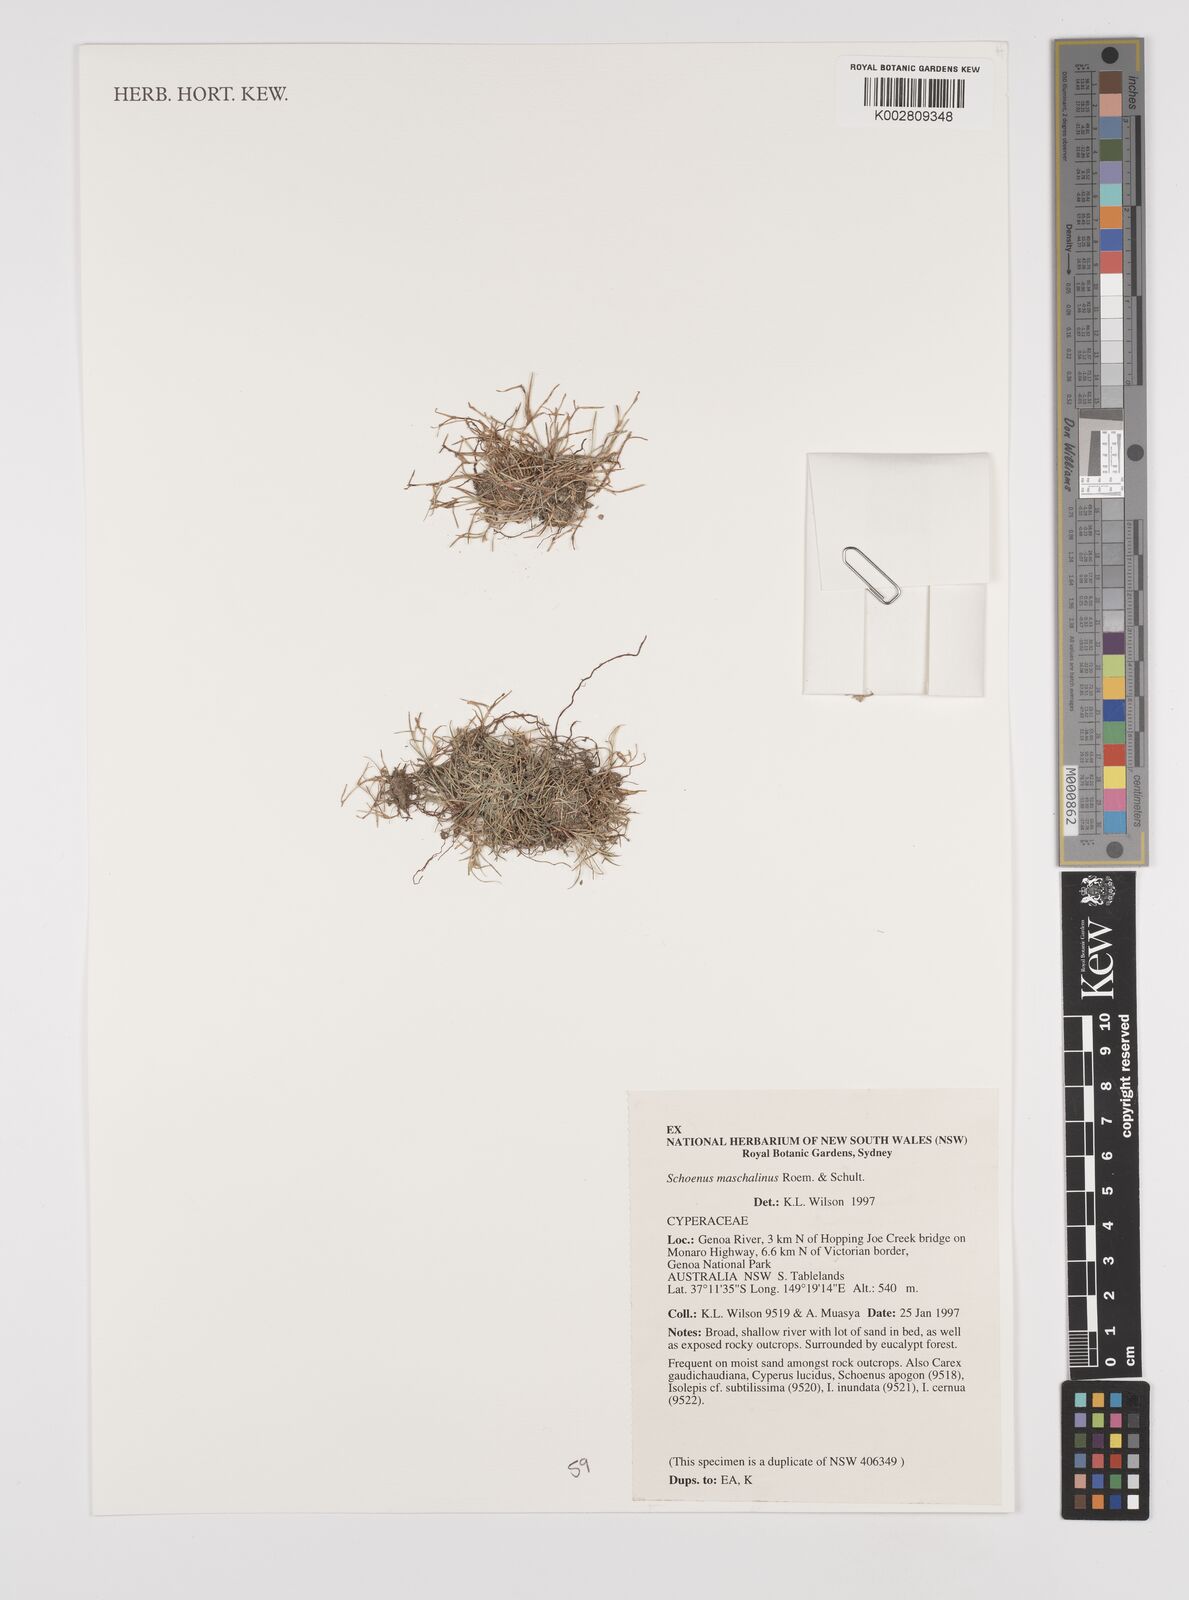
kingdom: Plantae
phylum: Tracheophyta
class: Liliopsida
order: Poales
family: Cyperaceae
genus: Schoenus
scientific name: Schoenus maschalinus
